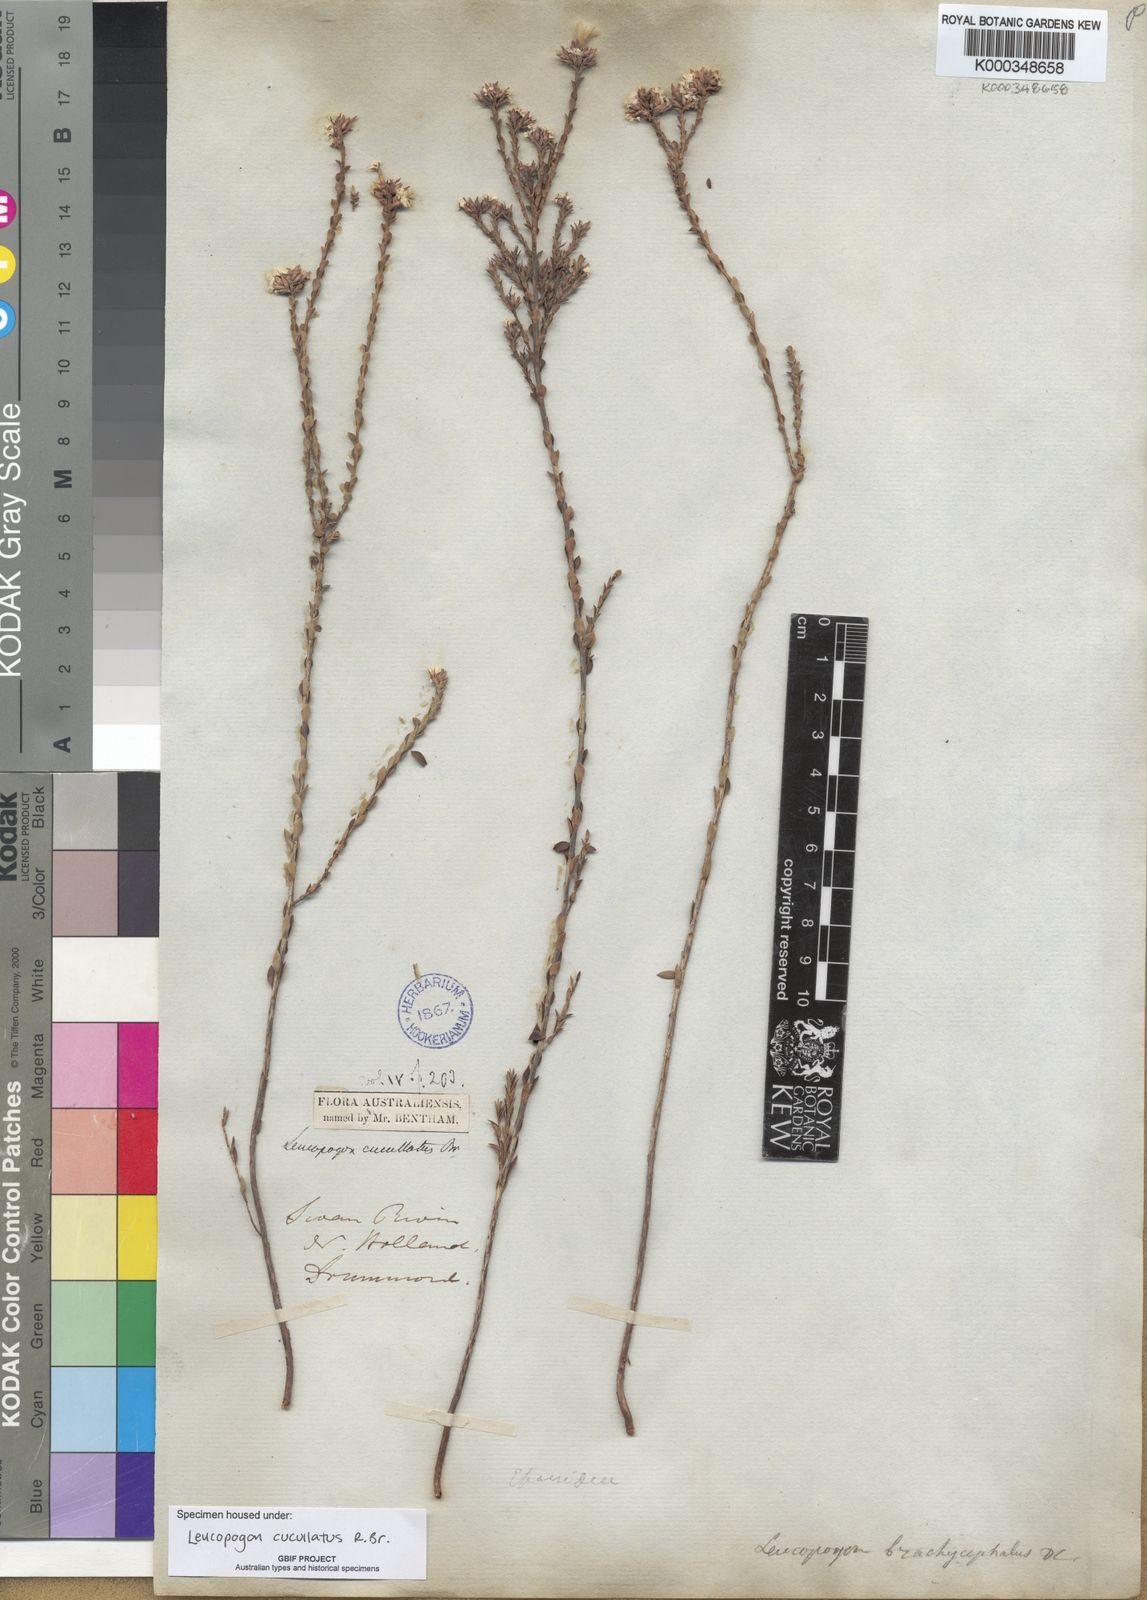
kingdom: Plantae
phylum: Tracheophyta
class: Magnoliopsida
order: Ericales
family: Ericaceae
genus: Leucopogon
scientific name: Leucopogon cucullatus
